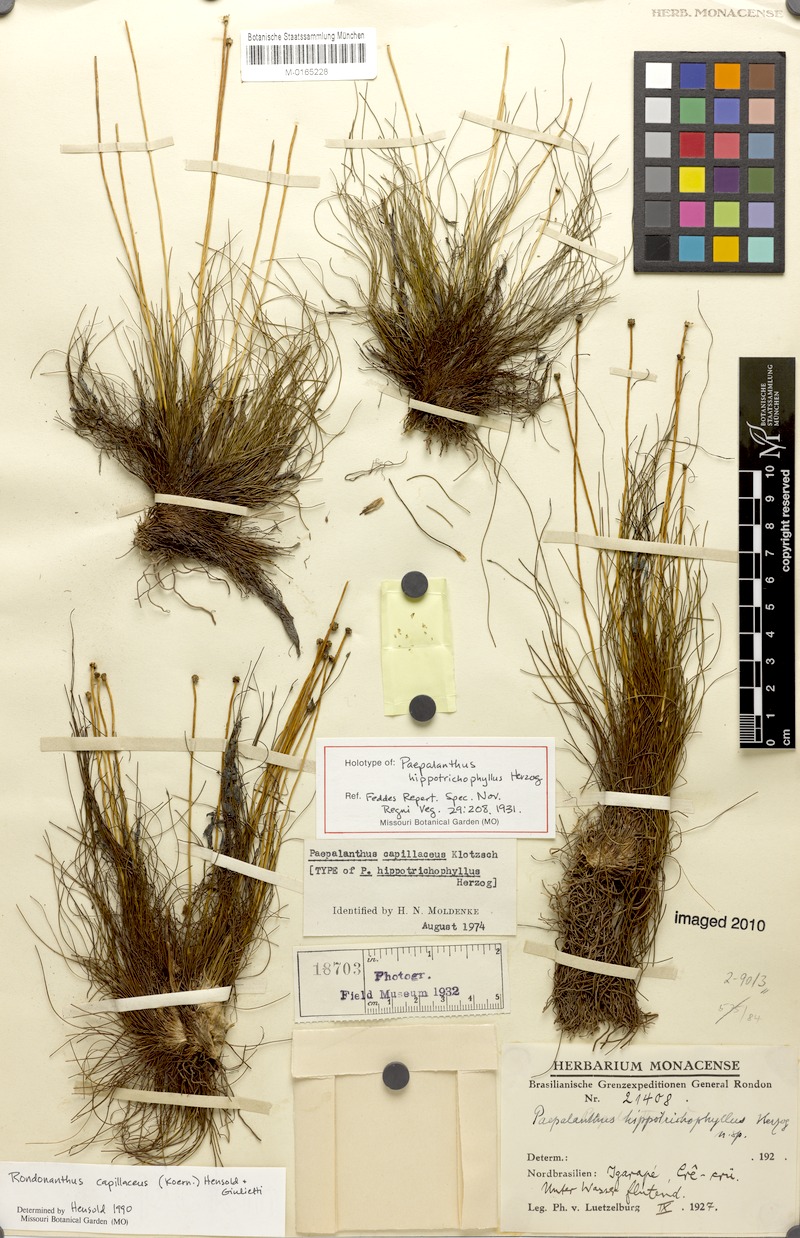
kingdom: Plantae
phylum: Tracheophyta
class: Liliopsida
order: Poales
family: Eriocaulaceae
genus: Rondonanthus
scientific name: Rondonanthus capillaceus
